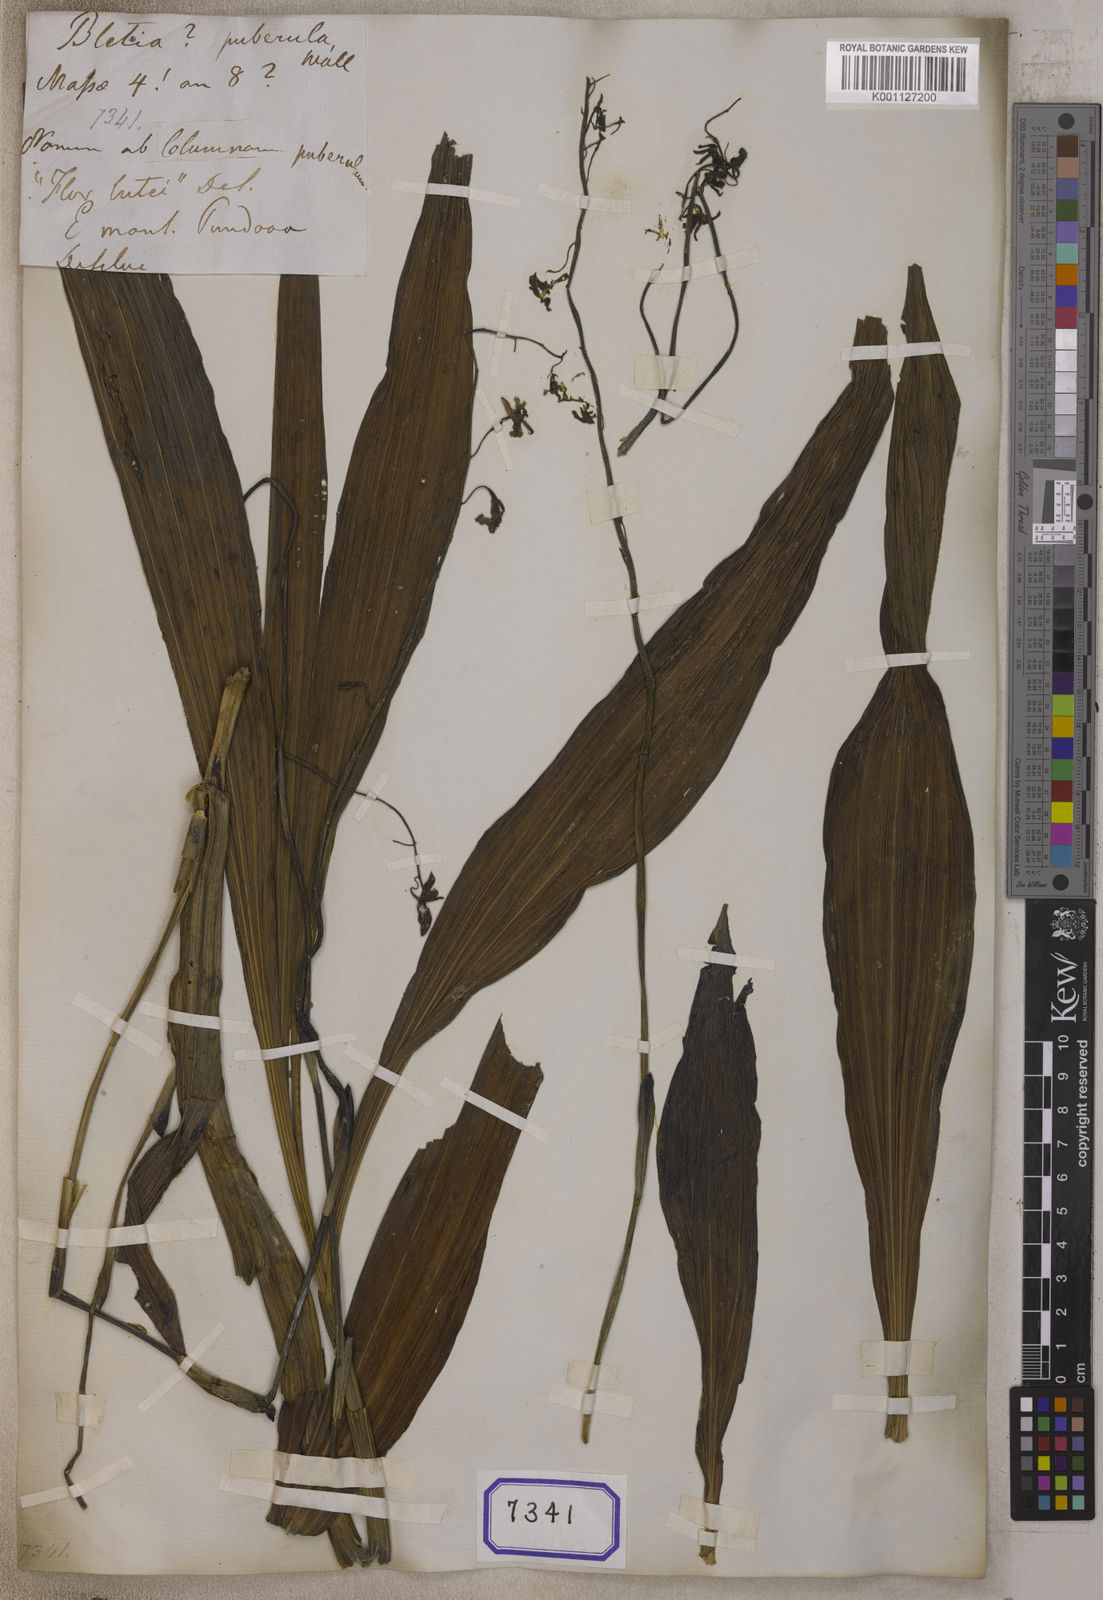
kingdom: Plantae
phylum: Tracheophyta
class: Liliopsida
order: Asparagales
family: Orchidaceae
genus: Calanthe
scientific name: Calanthe obcordata
